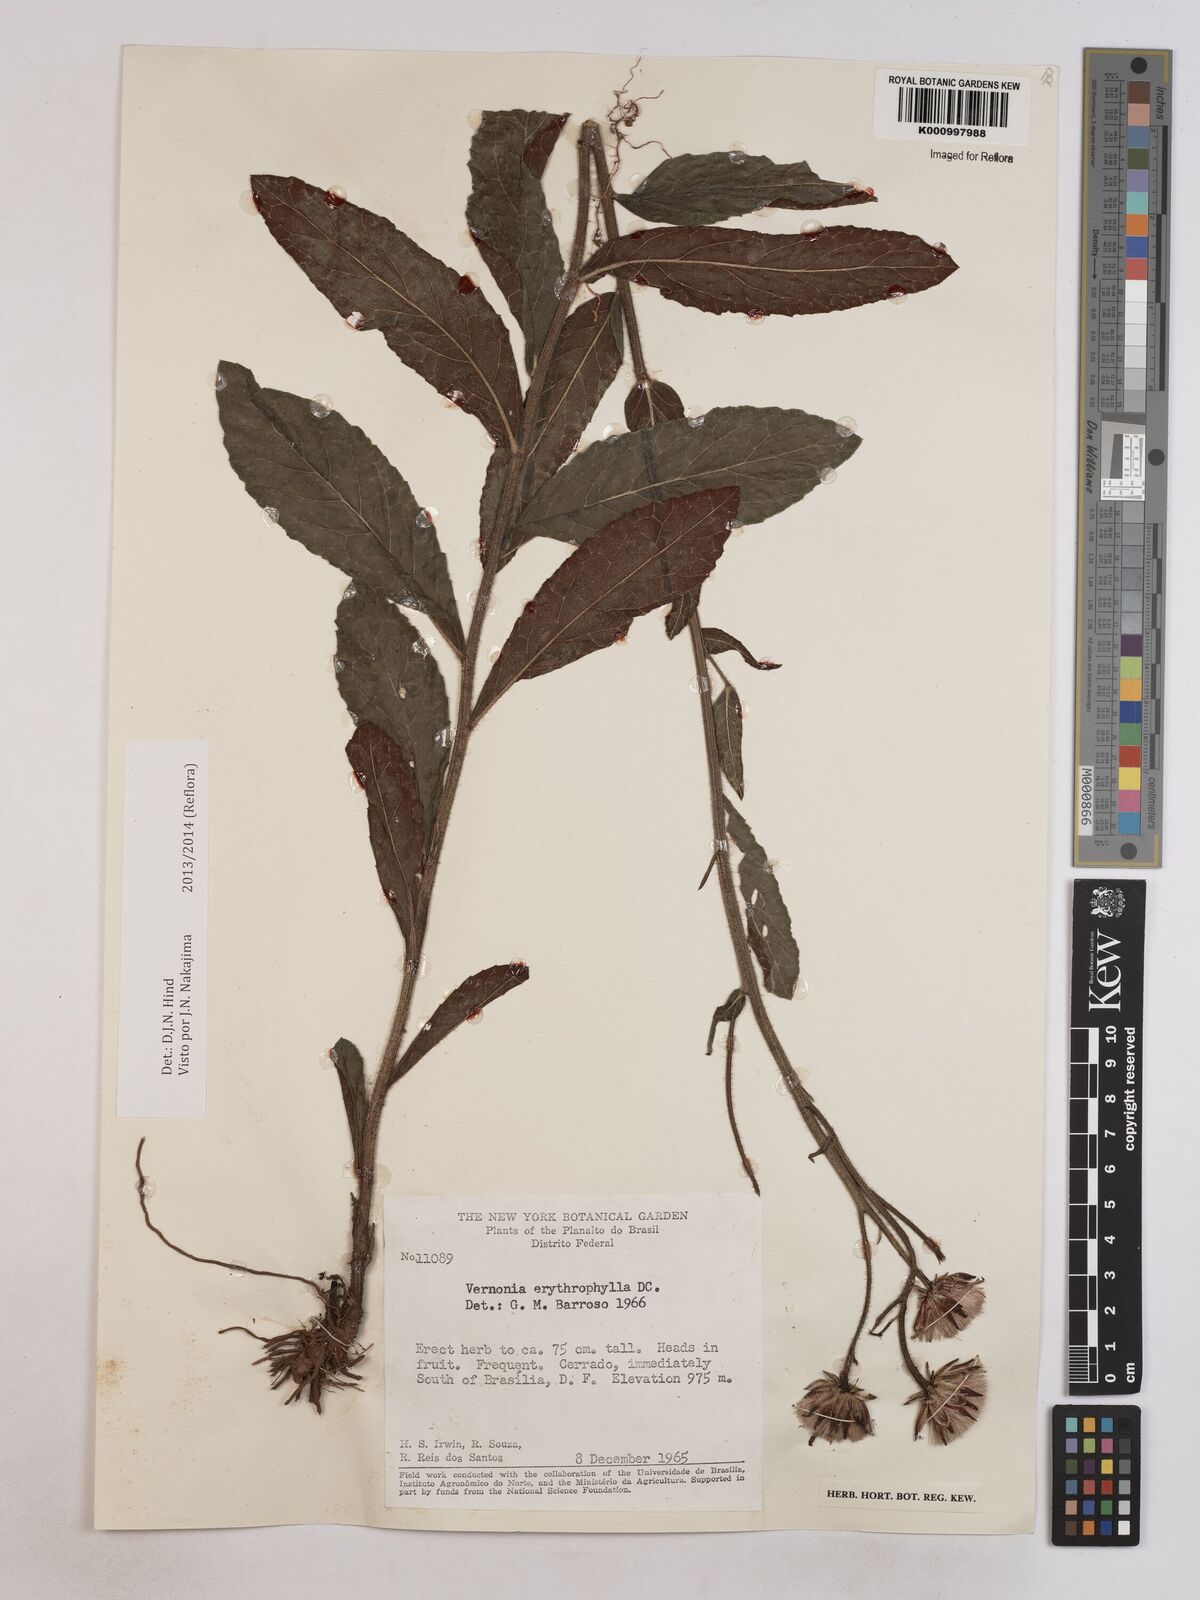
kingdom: Plantae
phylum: Tracheophyta
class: Magnoliopsida
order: Asterales
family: Asteraceae
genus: Lessingianthus
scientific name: Lessingianthus erythrophilus
